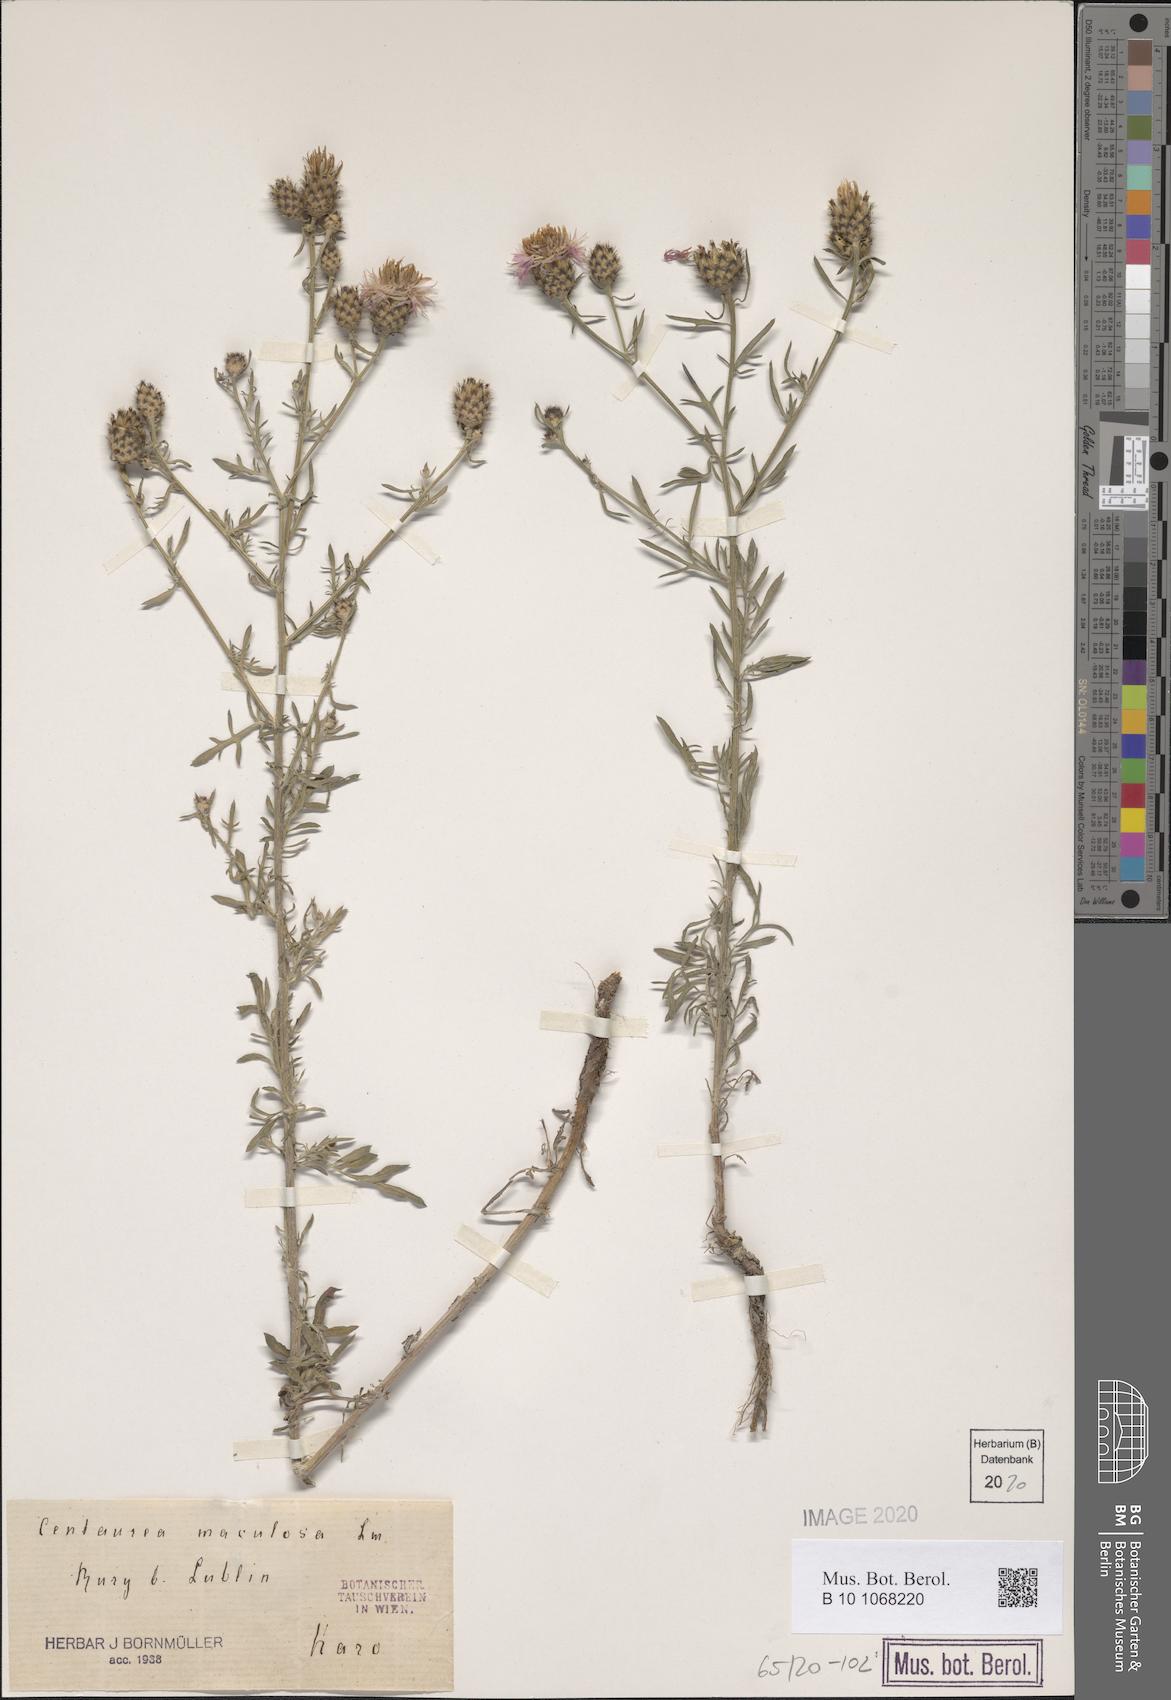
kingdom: Plantae
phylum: Tracheophyta
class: Magnoliopsida
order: Asterales
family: Asteraceae
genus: Centaurea
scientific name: Centaurea stoebe
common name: Spotted knapweed
